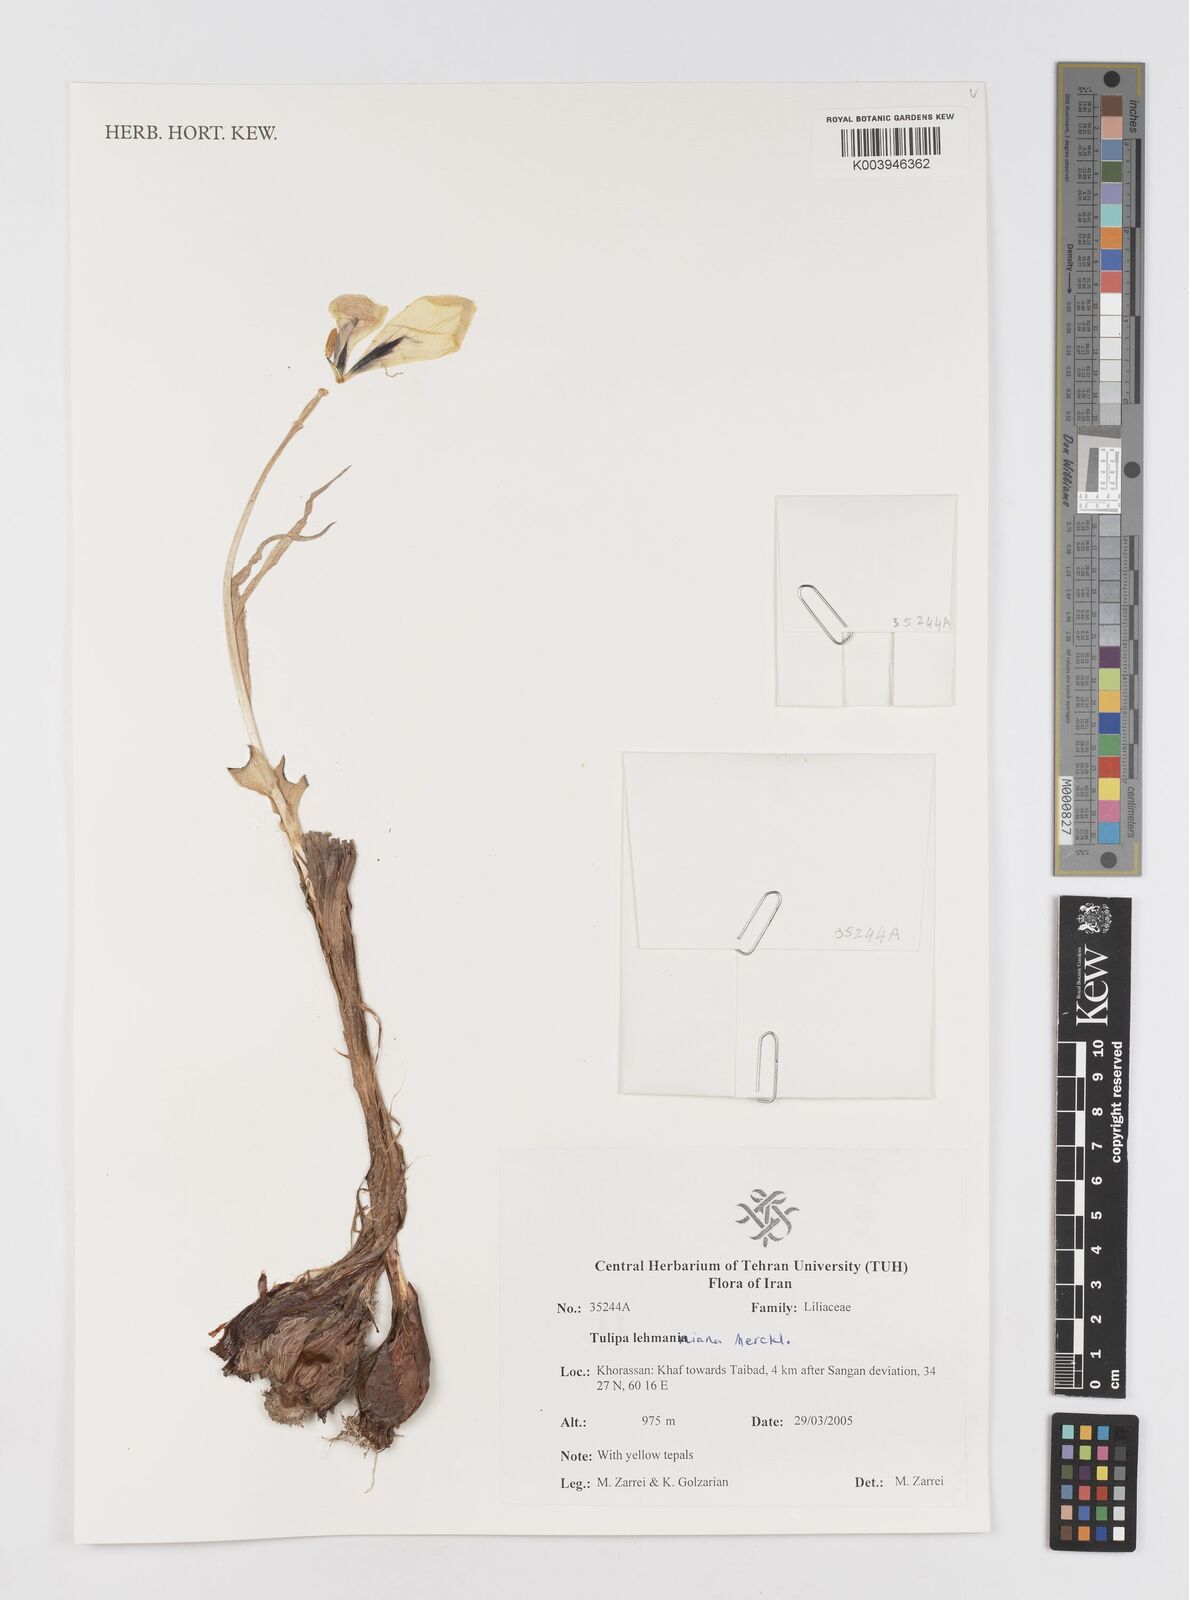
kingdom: Plantae
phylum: Tracheophyta
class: Liliopsida
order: Liliales
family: Liliaceae
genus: Tulipa
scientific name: Tulipa lehmanniana
